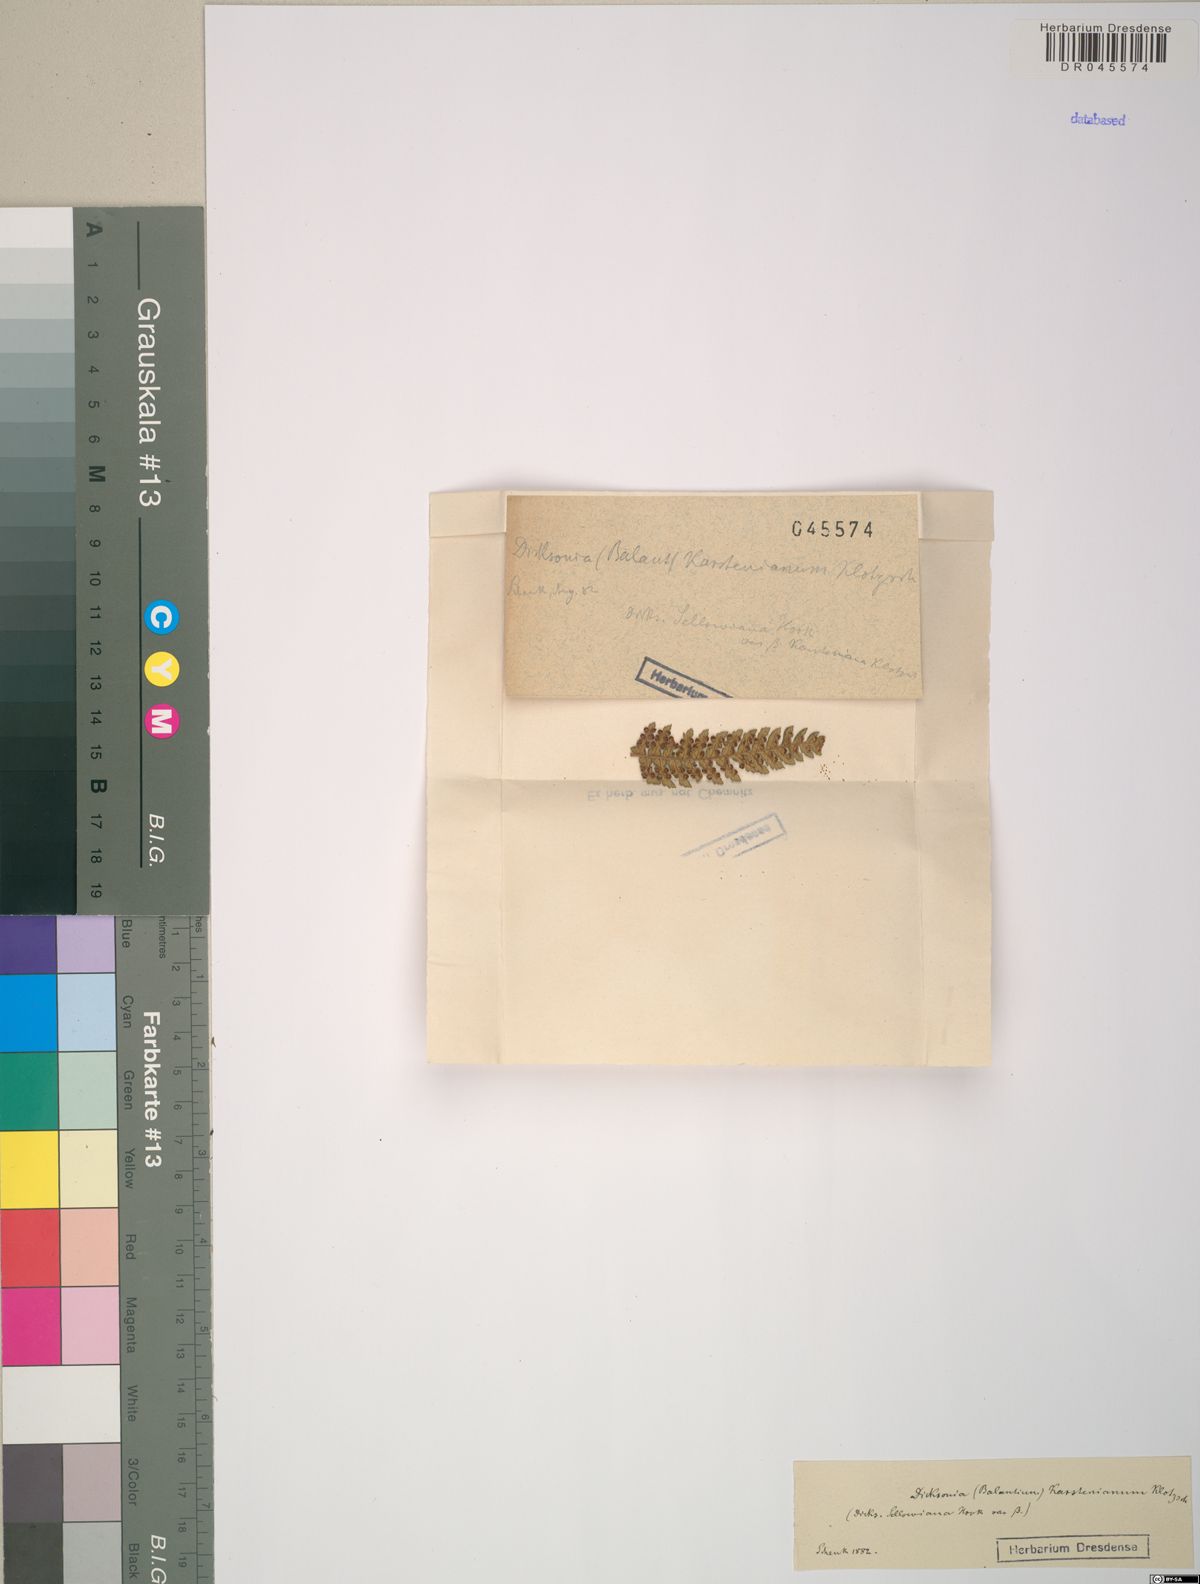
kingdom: Plantae
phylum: Tracheophyta
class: Polypodiopsida
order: Cyatheales
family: Dicksoniaceae
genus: Dicksonia
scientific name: Dicksonia sellowiana
